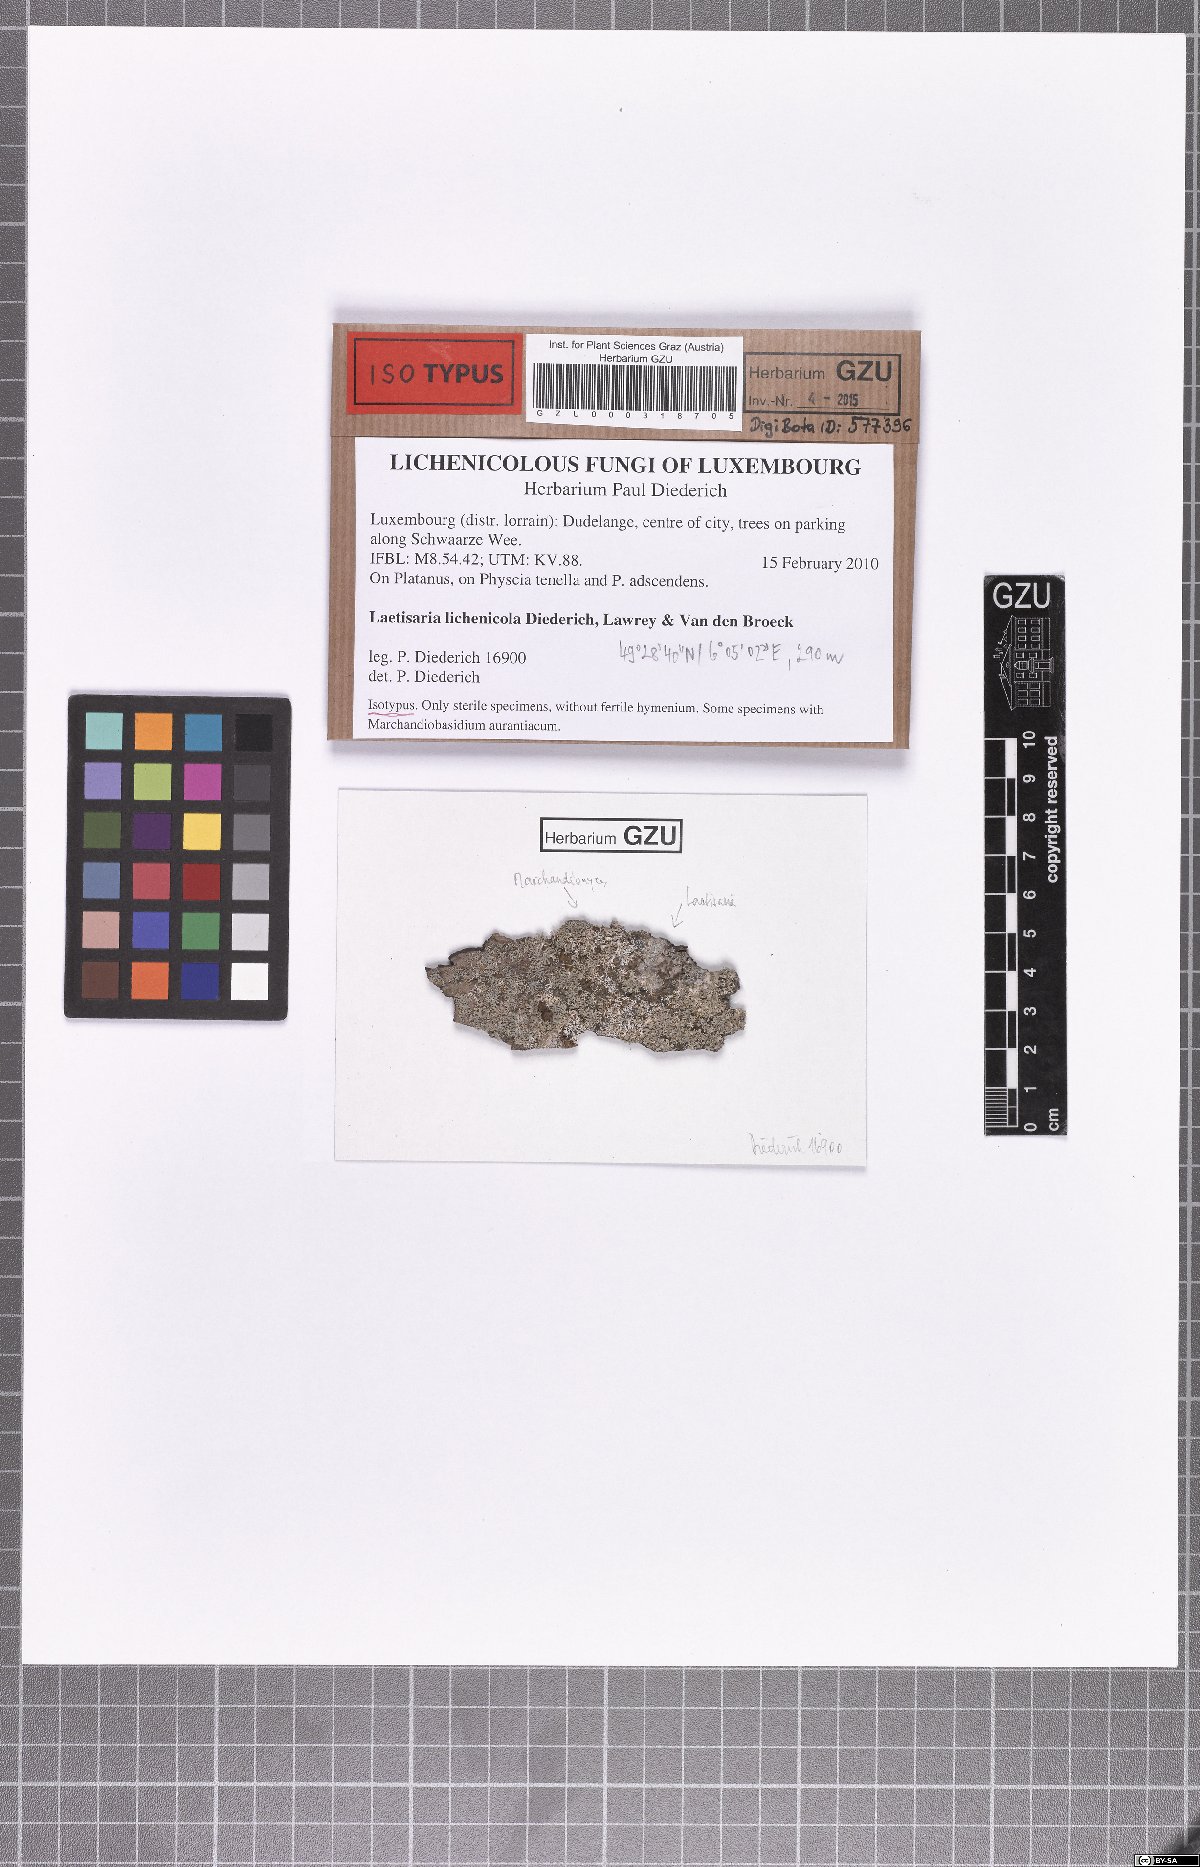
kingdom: Fungi
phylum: Basidiomycota
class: Agaricomycetes
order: Corticiales
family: Corticiaceae
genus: Laetisaria
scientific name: Laetisaria lichenicola
